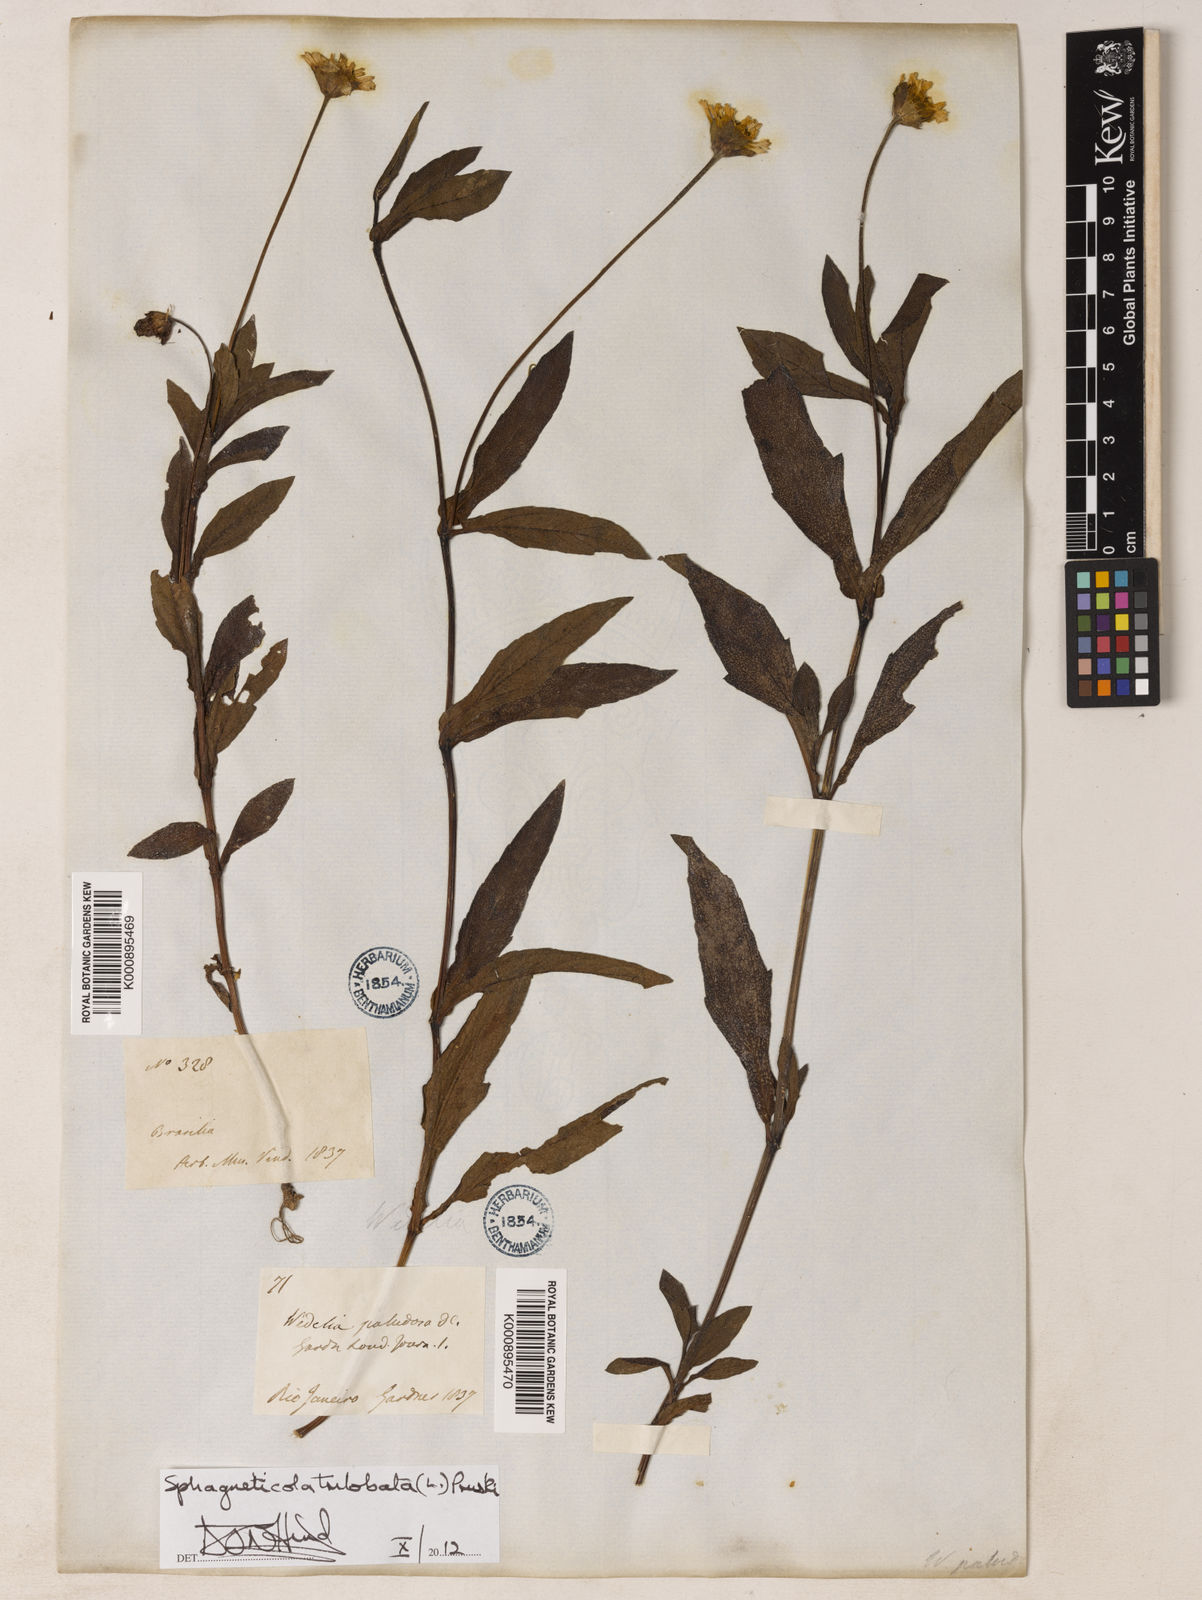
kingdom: Plantae
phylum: Tracheophyta
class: Magnoliopsida
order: Asterales
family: Asteraceae
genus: Sphagneticola
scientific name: Sphagneticola trilobata
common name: Bay biscayne creeping-oxeye
